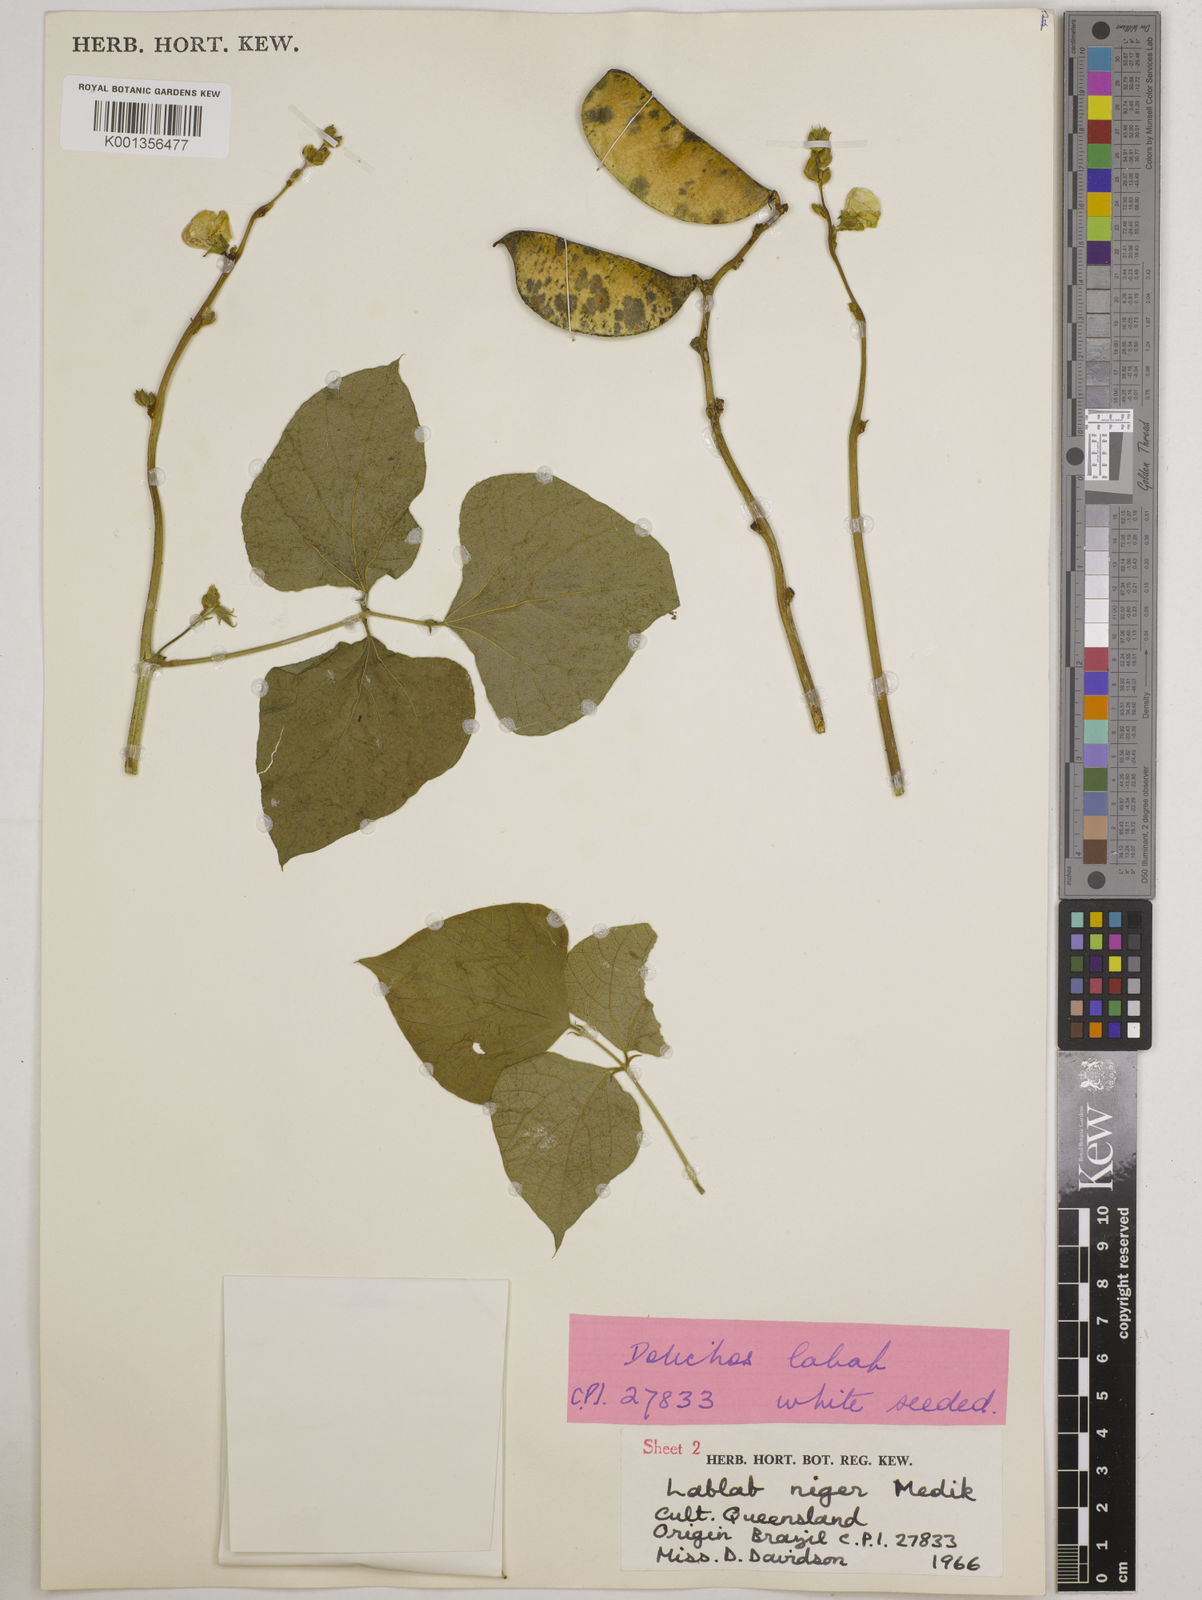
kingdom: Plantae
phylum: Tracheophyta
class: Magnoliopsida
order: Fabales
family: Fabaceae
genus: Lablab
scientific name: Lablab purpureus
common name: Lablab-bean
